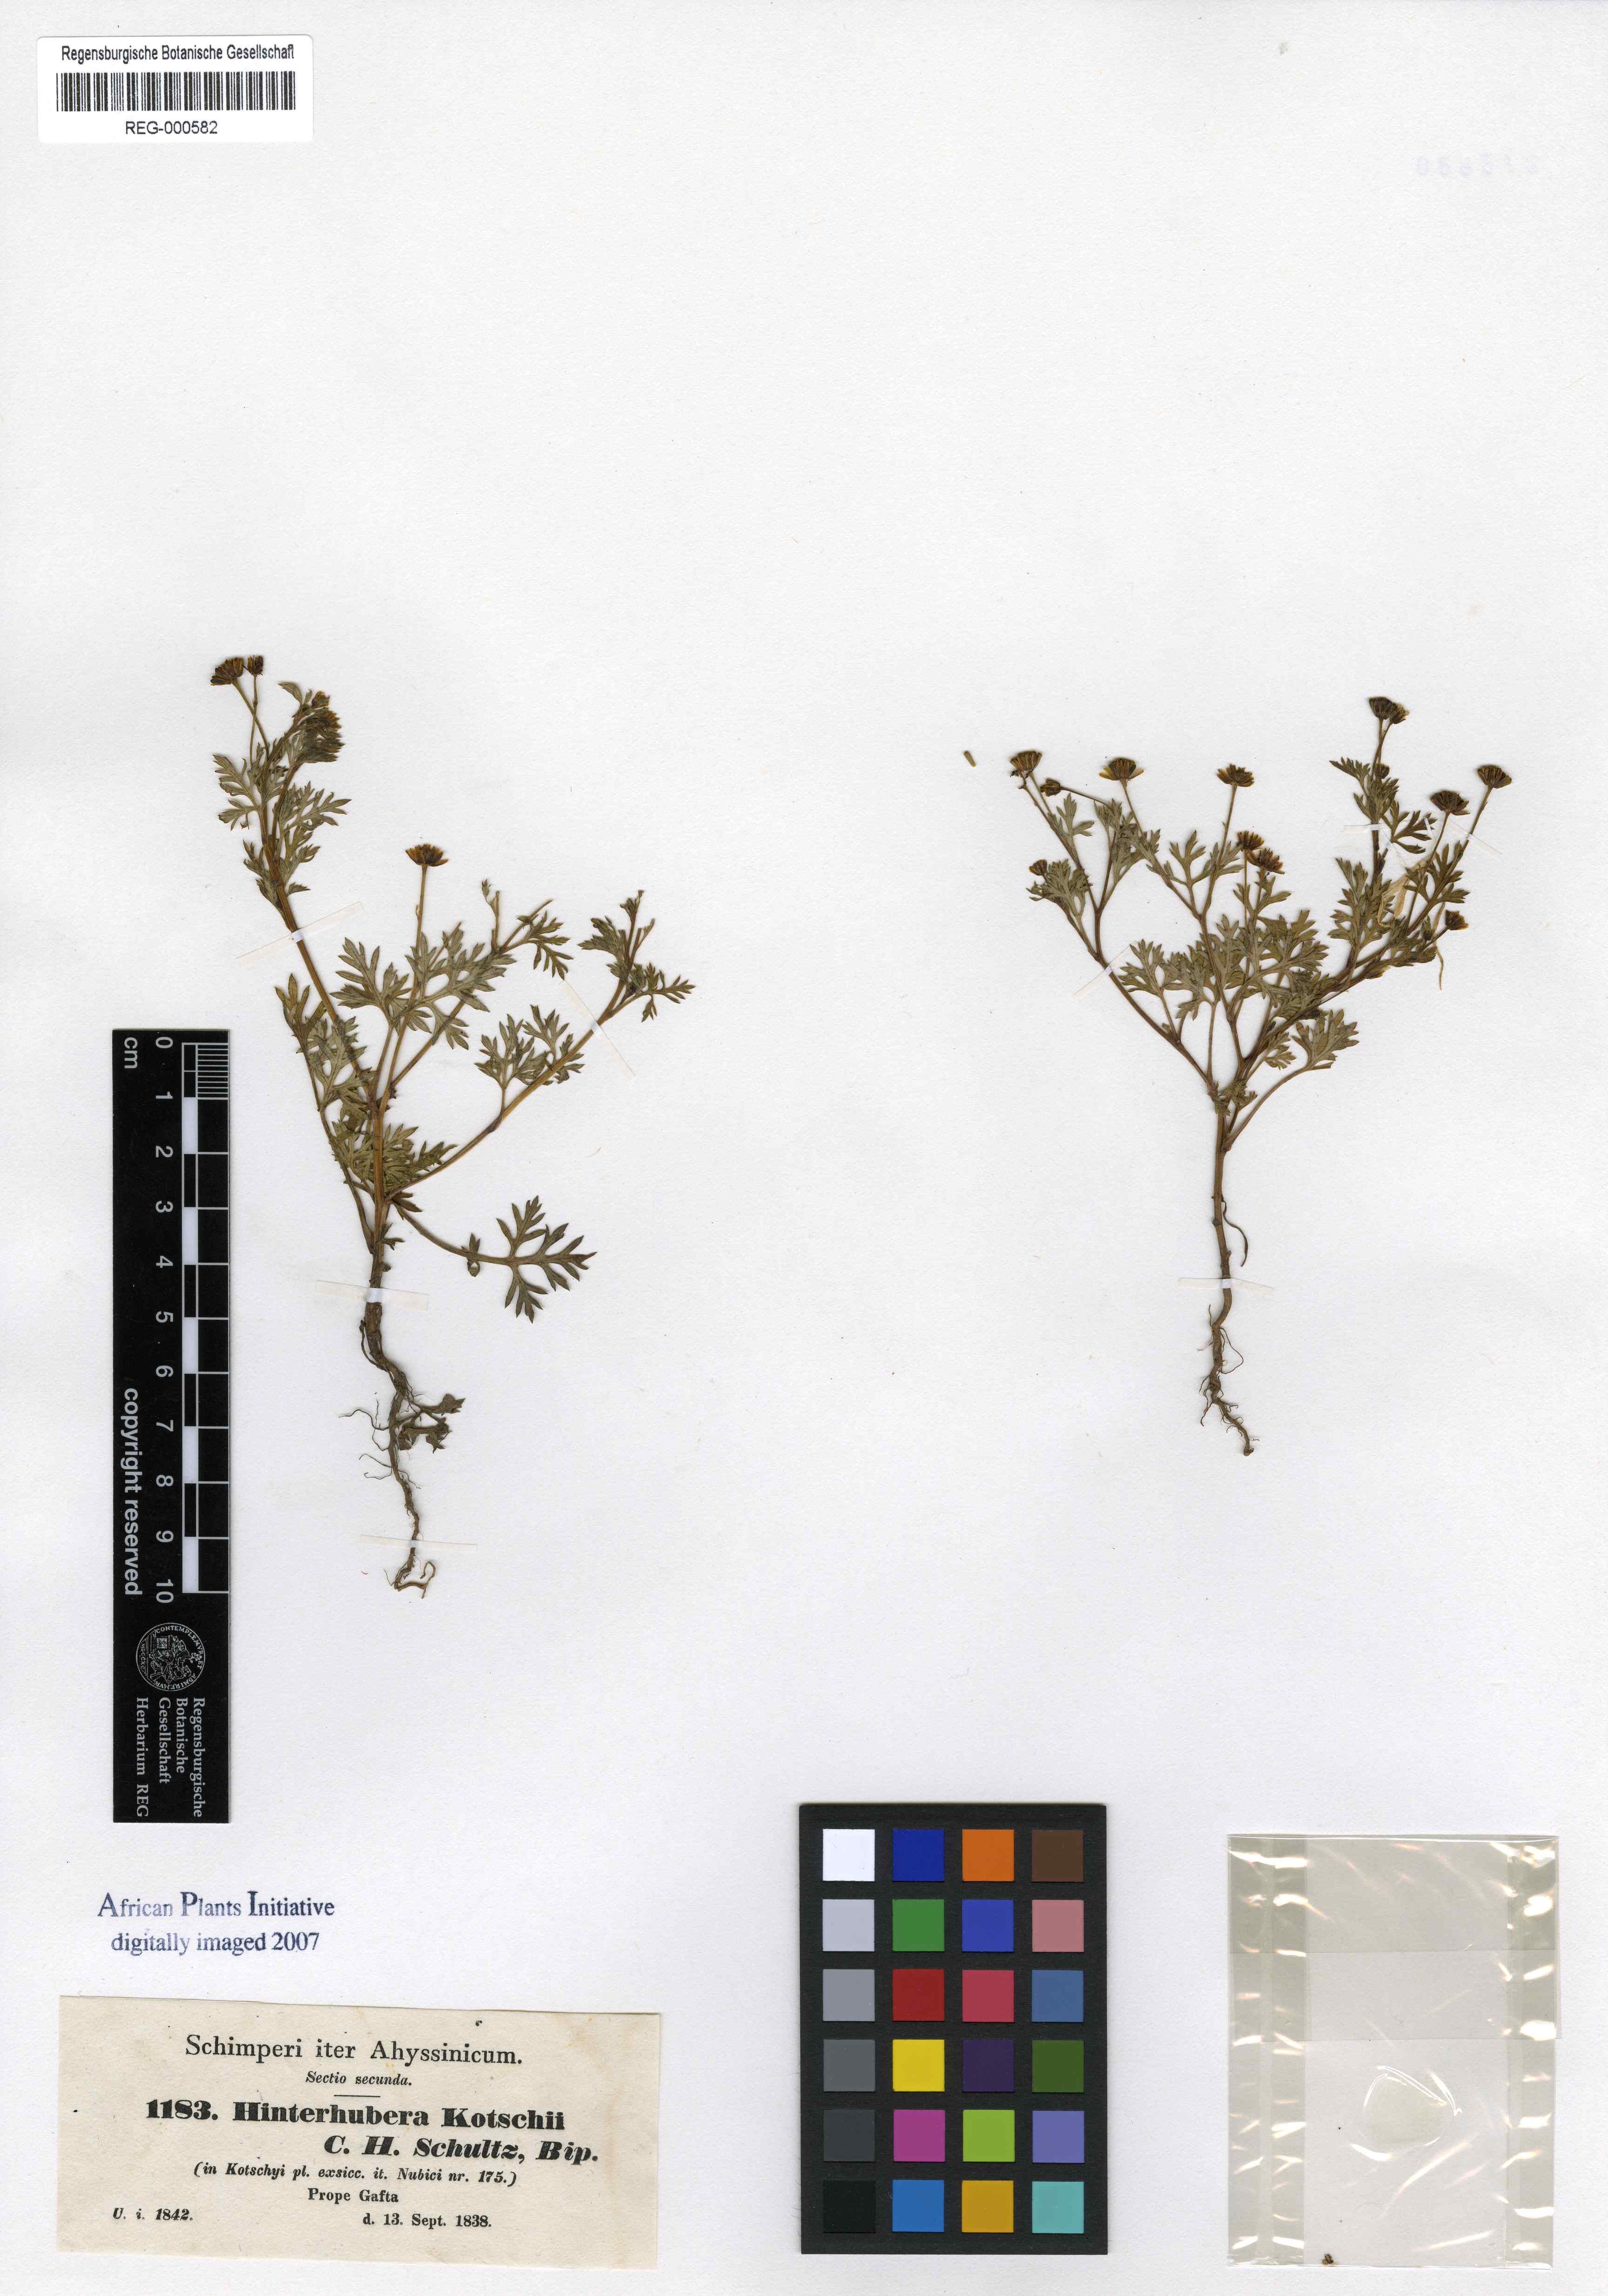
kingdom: Plantae
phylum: Tracheophyta
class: Magnoliopsida
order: Asterales
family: Asteraceae
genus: Chrysanthellum
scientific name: Chrysanthellum indicum
